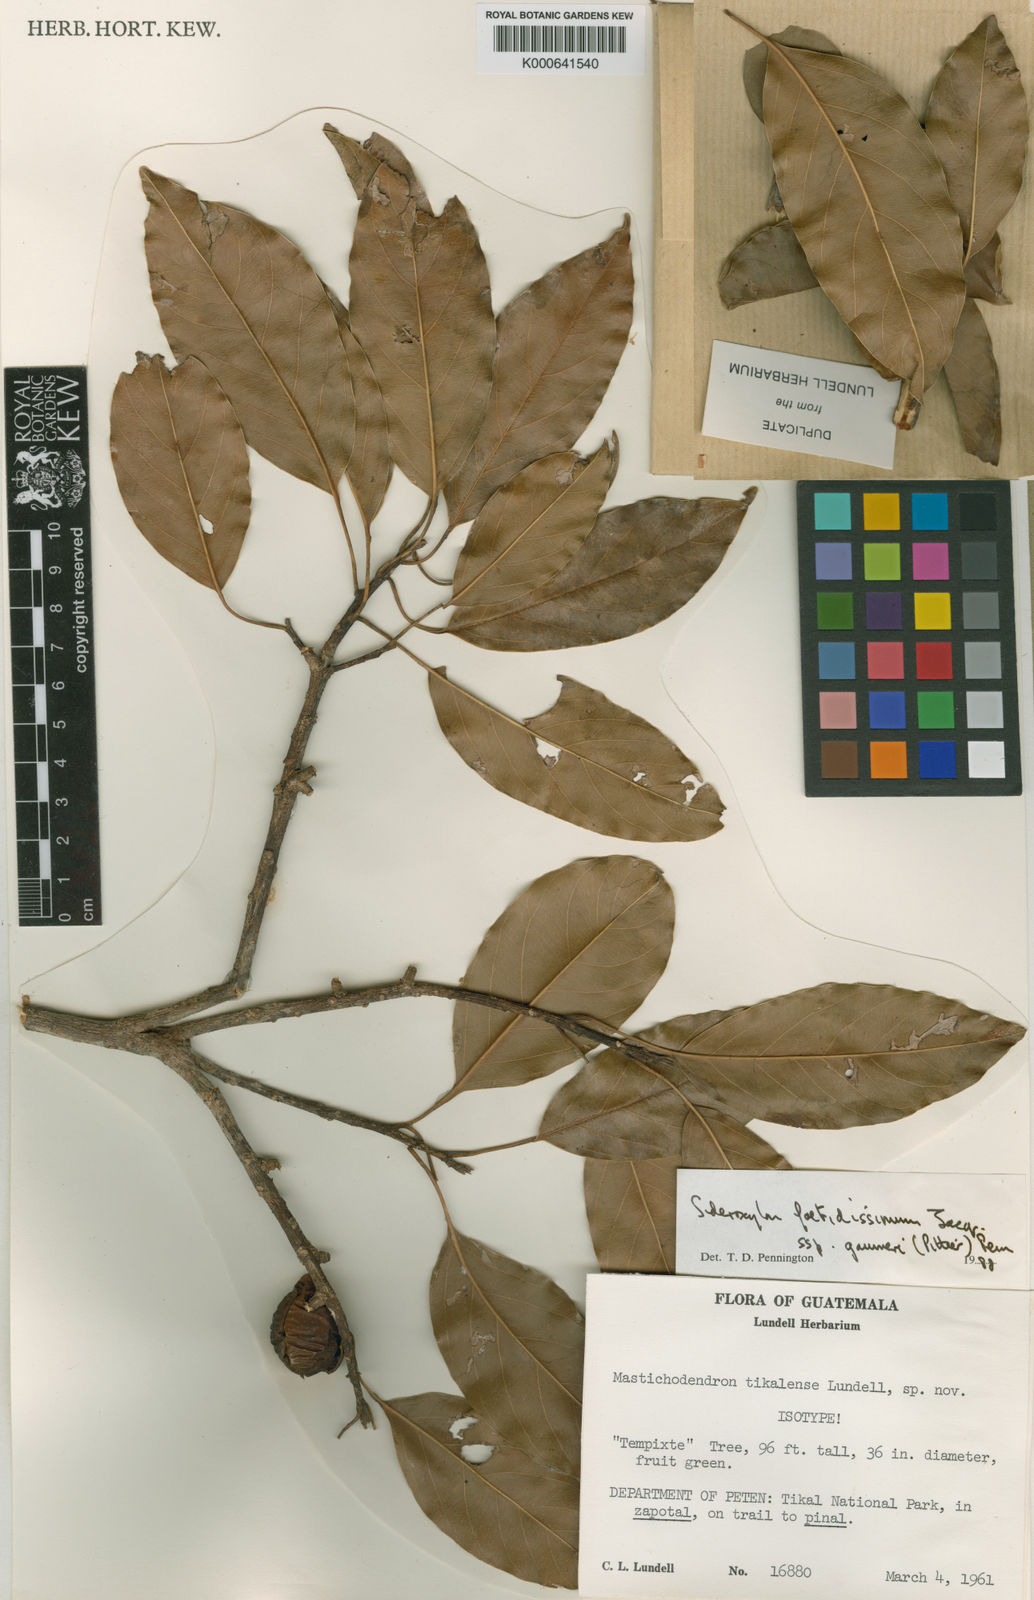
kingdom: Plantae
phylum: Tracheophyta
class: Magnoliopsida
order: Ericales
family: Sapotaceae
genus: Sideroxylon
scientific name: Sideroxylon foetidissimum
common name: Barbados-mastic
